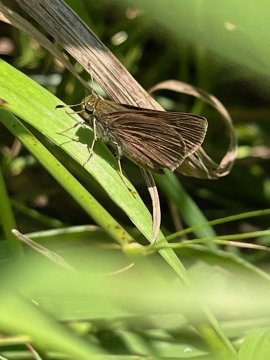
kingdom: Animalia
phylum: Arthropoda
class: Insecta
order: Lepidoptera
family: Hesperiidae
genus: Euphyes
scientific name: Euphyes vestris
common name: Dun Skipper
